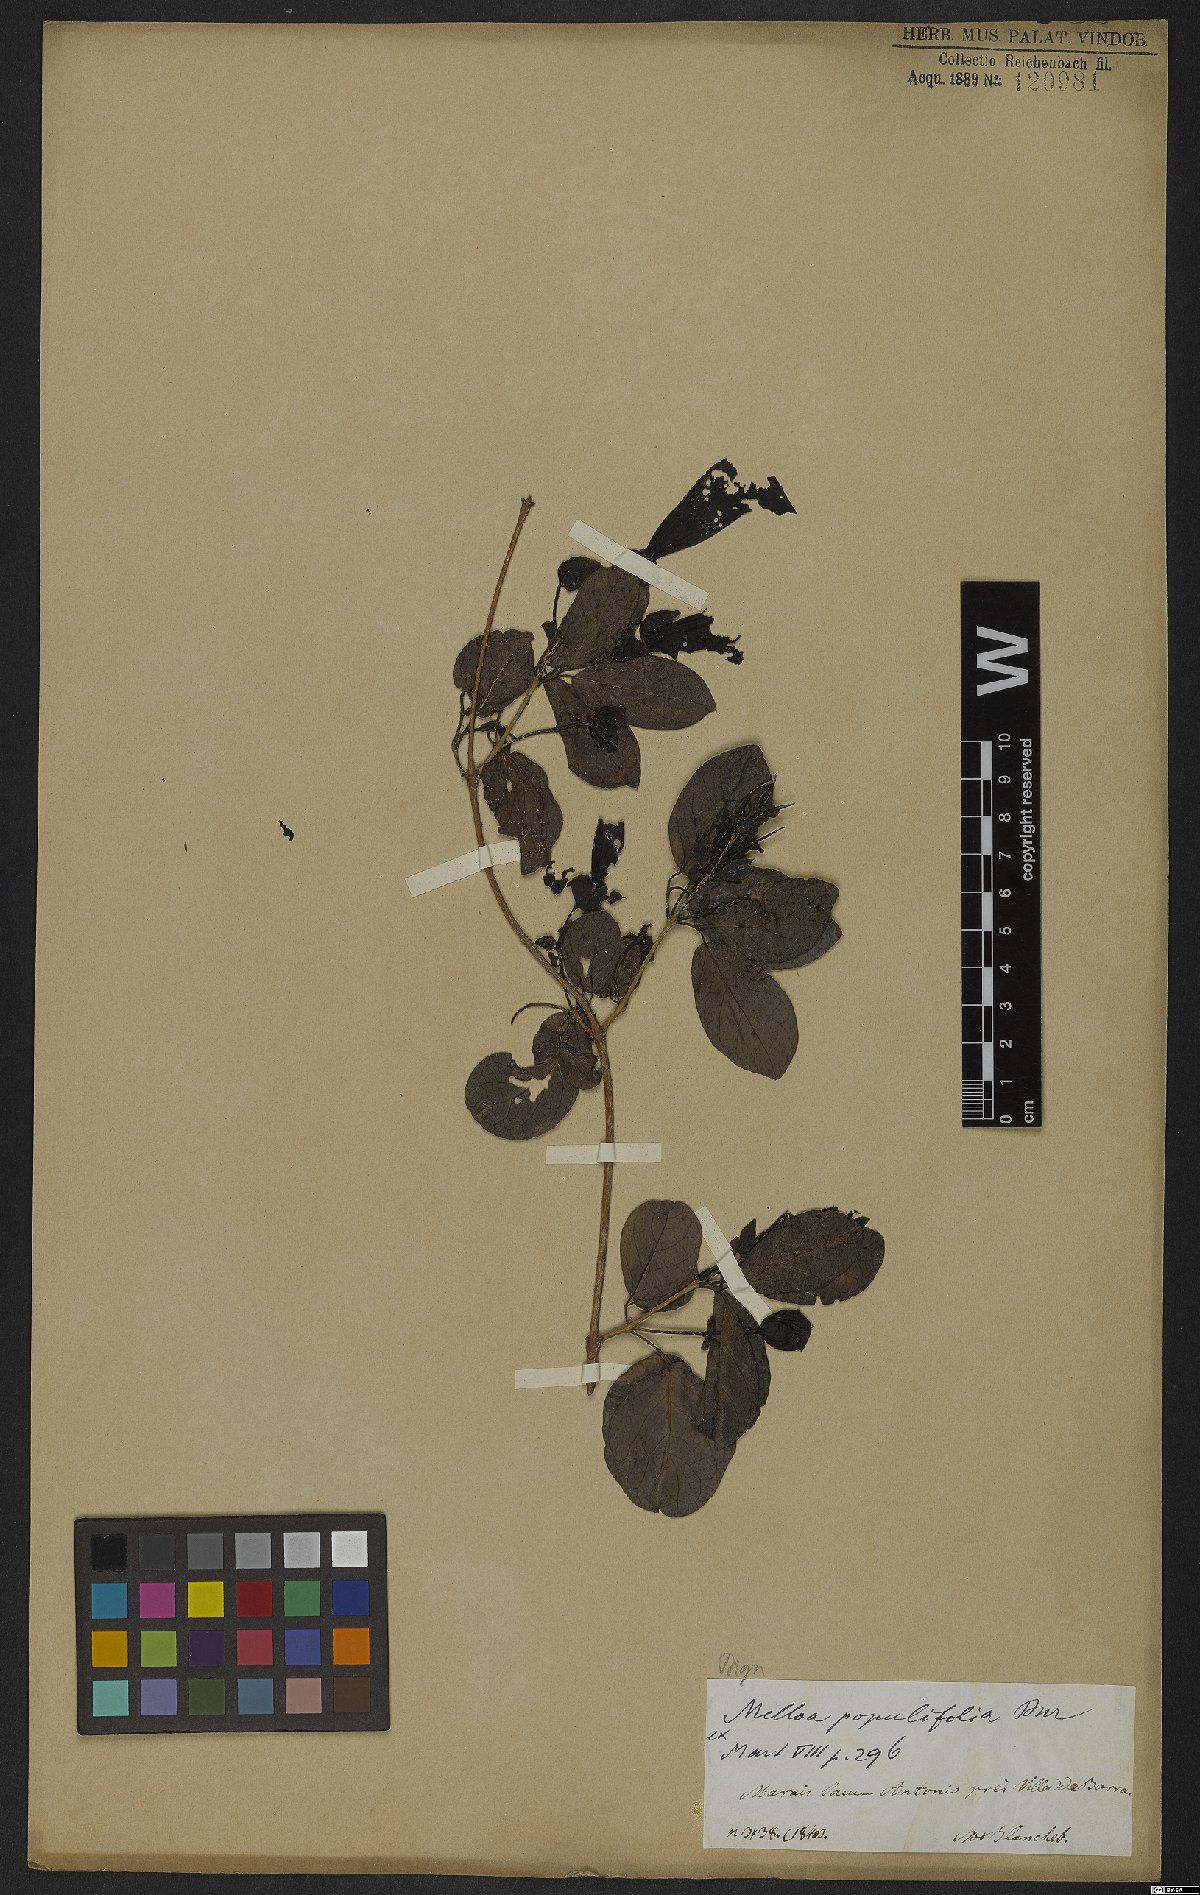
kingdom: Plantae
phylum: Tracheophyta
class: Magnoliopsida
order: Lamiales
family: Bignoniaceae
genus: Dolichandra
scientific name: Dolichandra quadrivalvis
